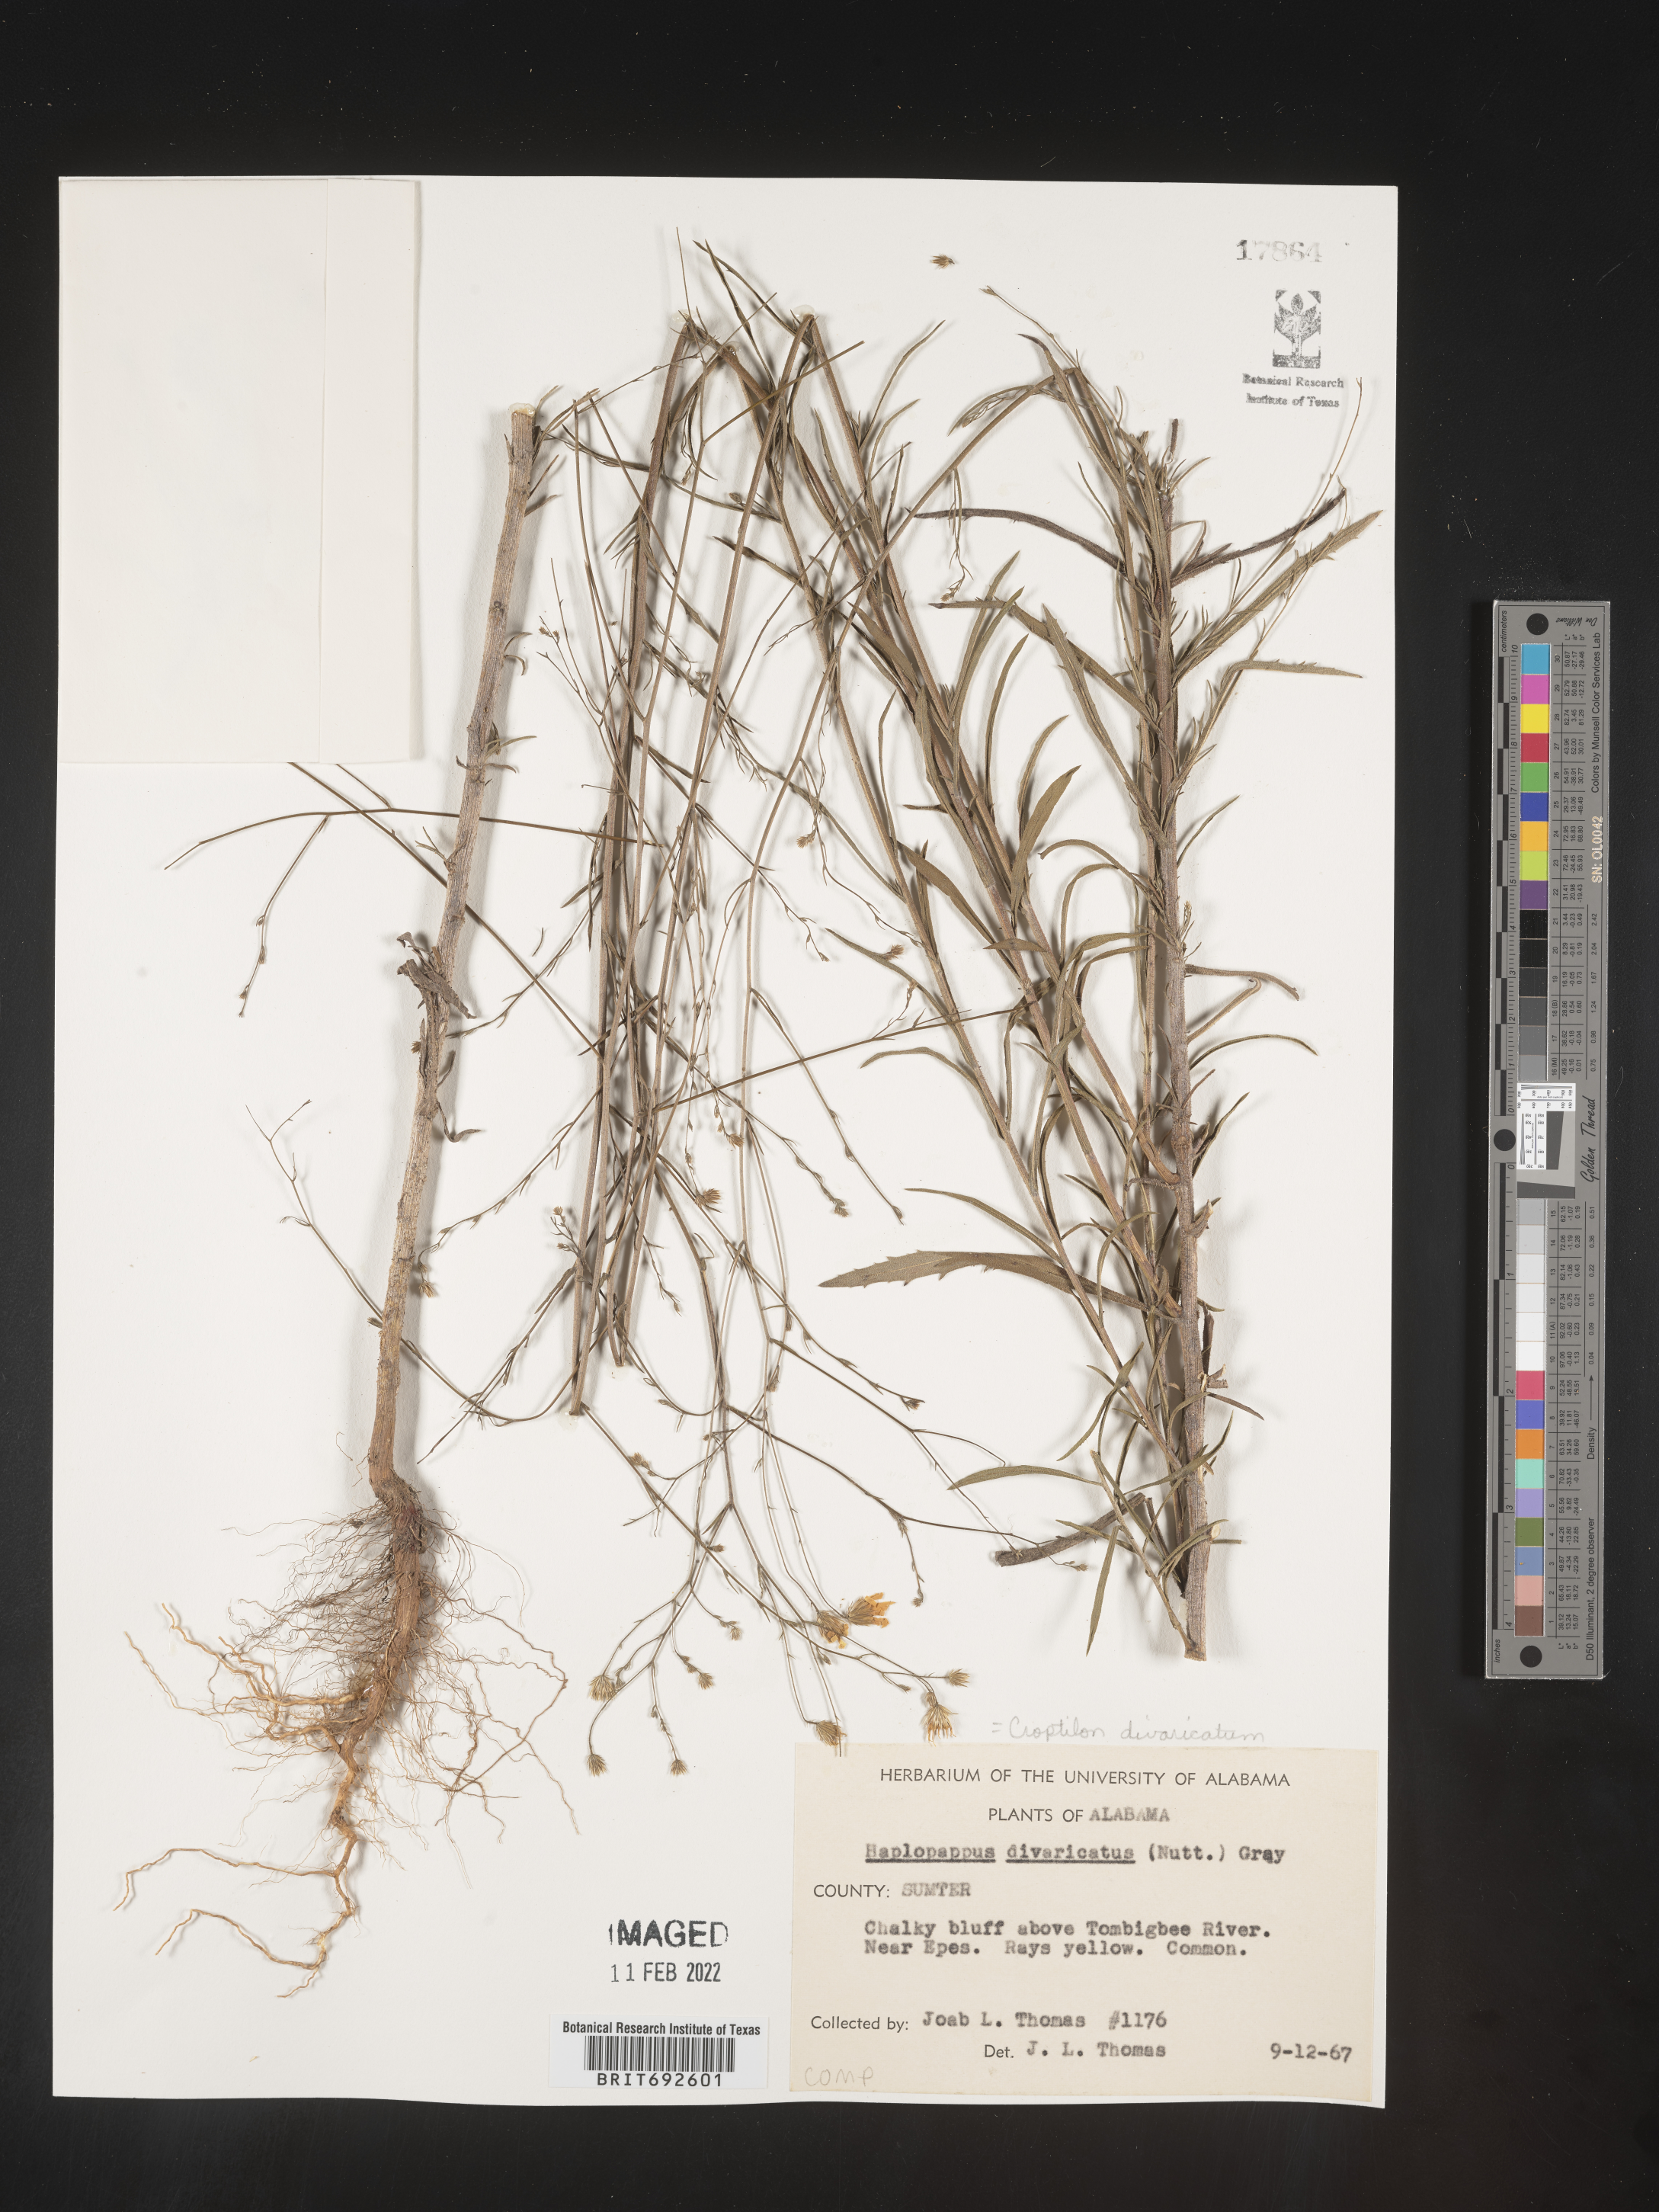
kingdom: Plantae
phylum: Tracheophyta
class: Magnoliopsida
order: Asterales
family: Asteraceae
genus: Croptilon
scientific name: Croptilon divaricatum
